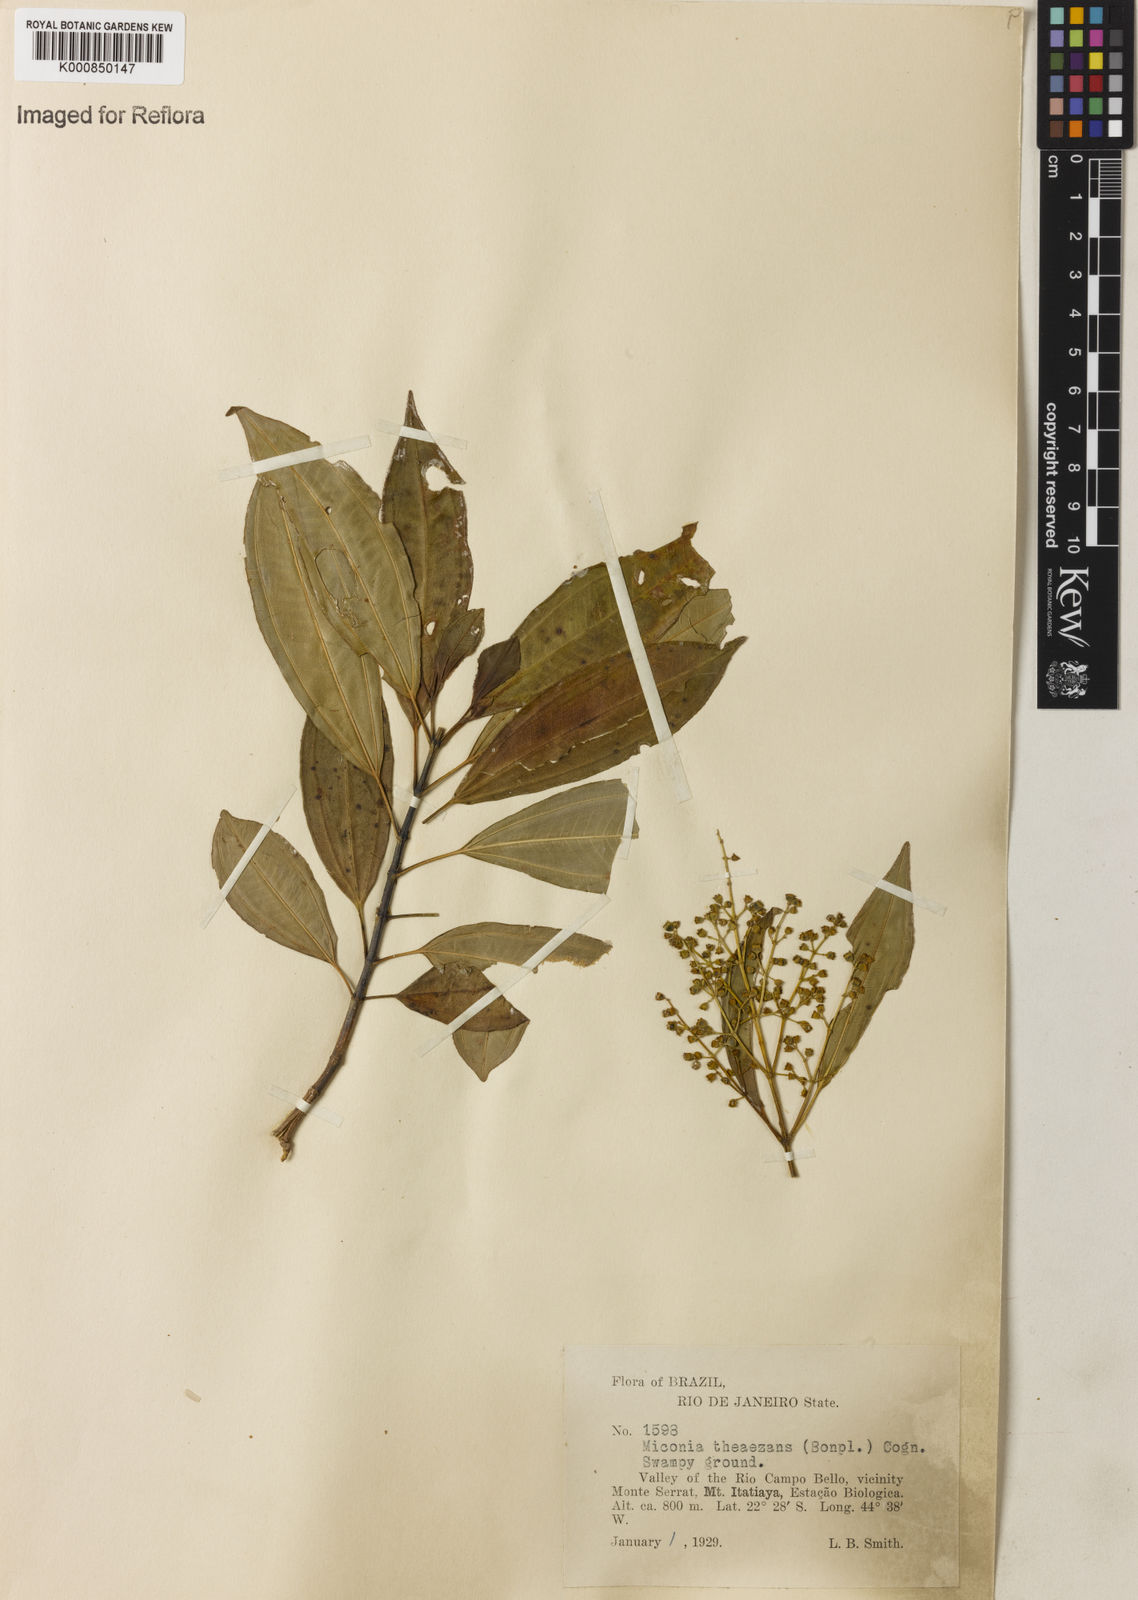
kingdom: Plantae
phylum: Tracheophyta
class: Magnoliopsida
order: Myrtales
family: Melastomataceae
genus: Miconia
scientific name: Miconia
